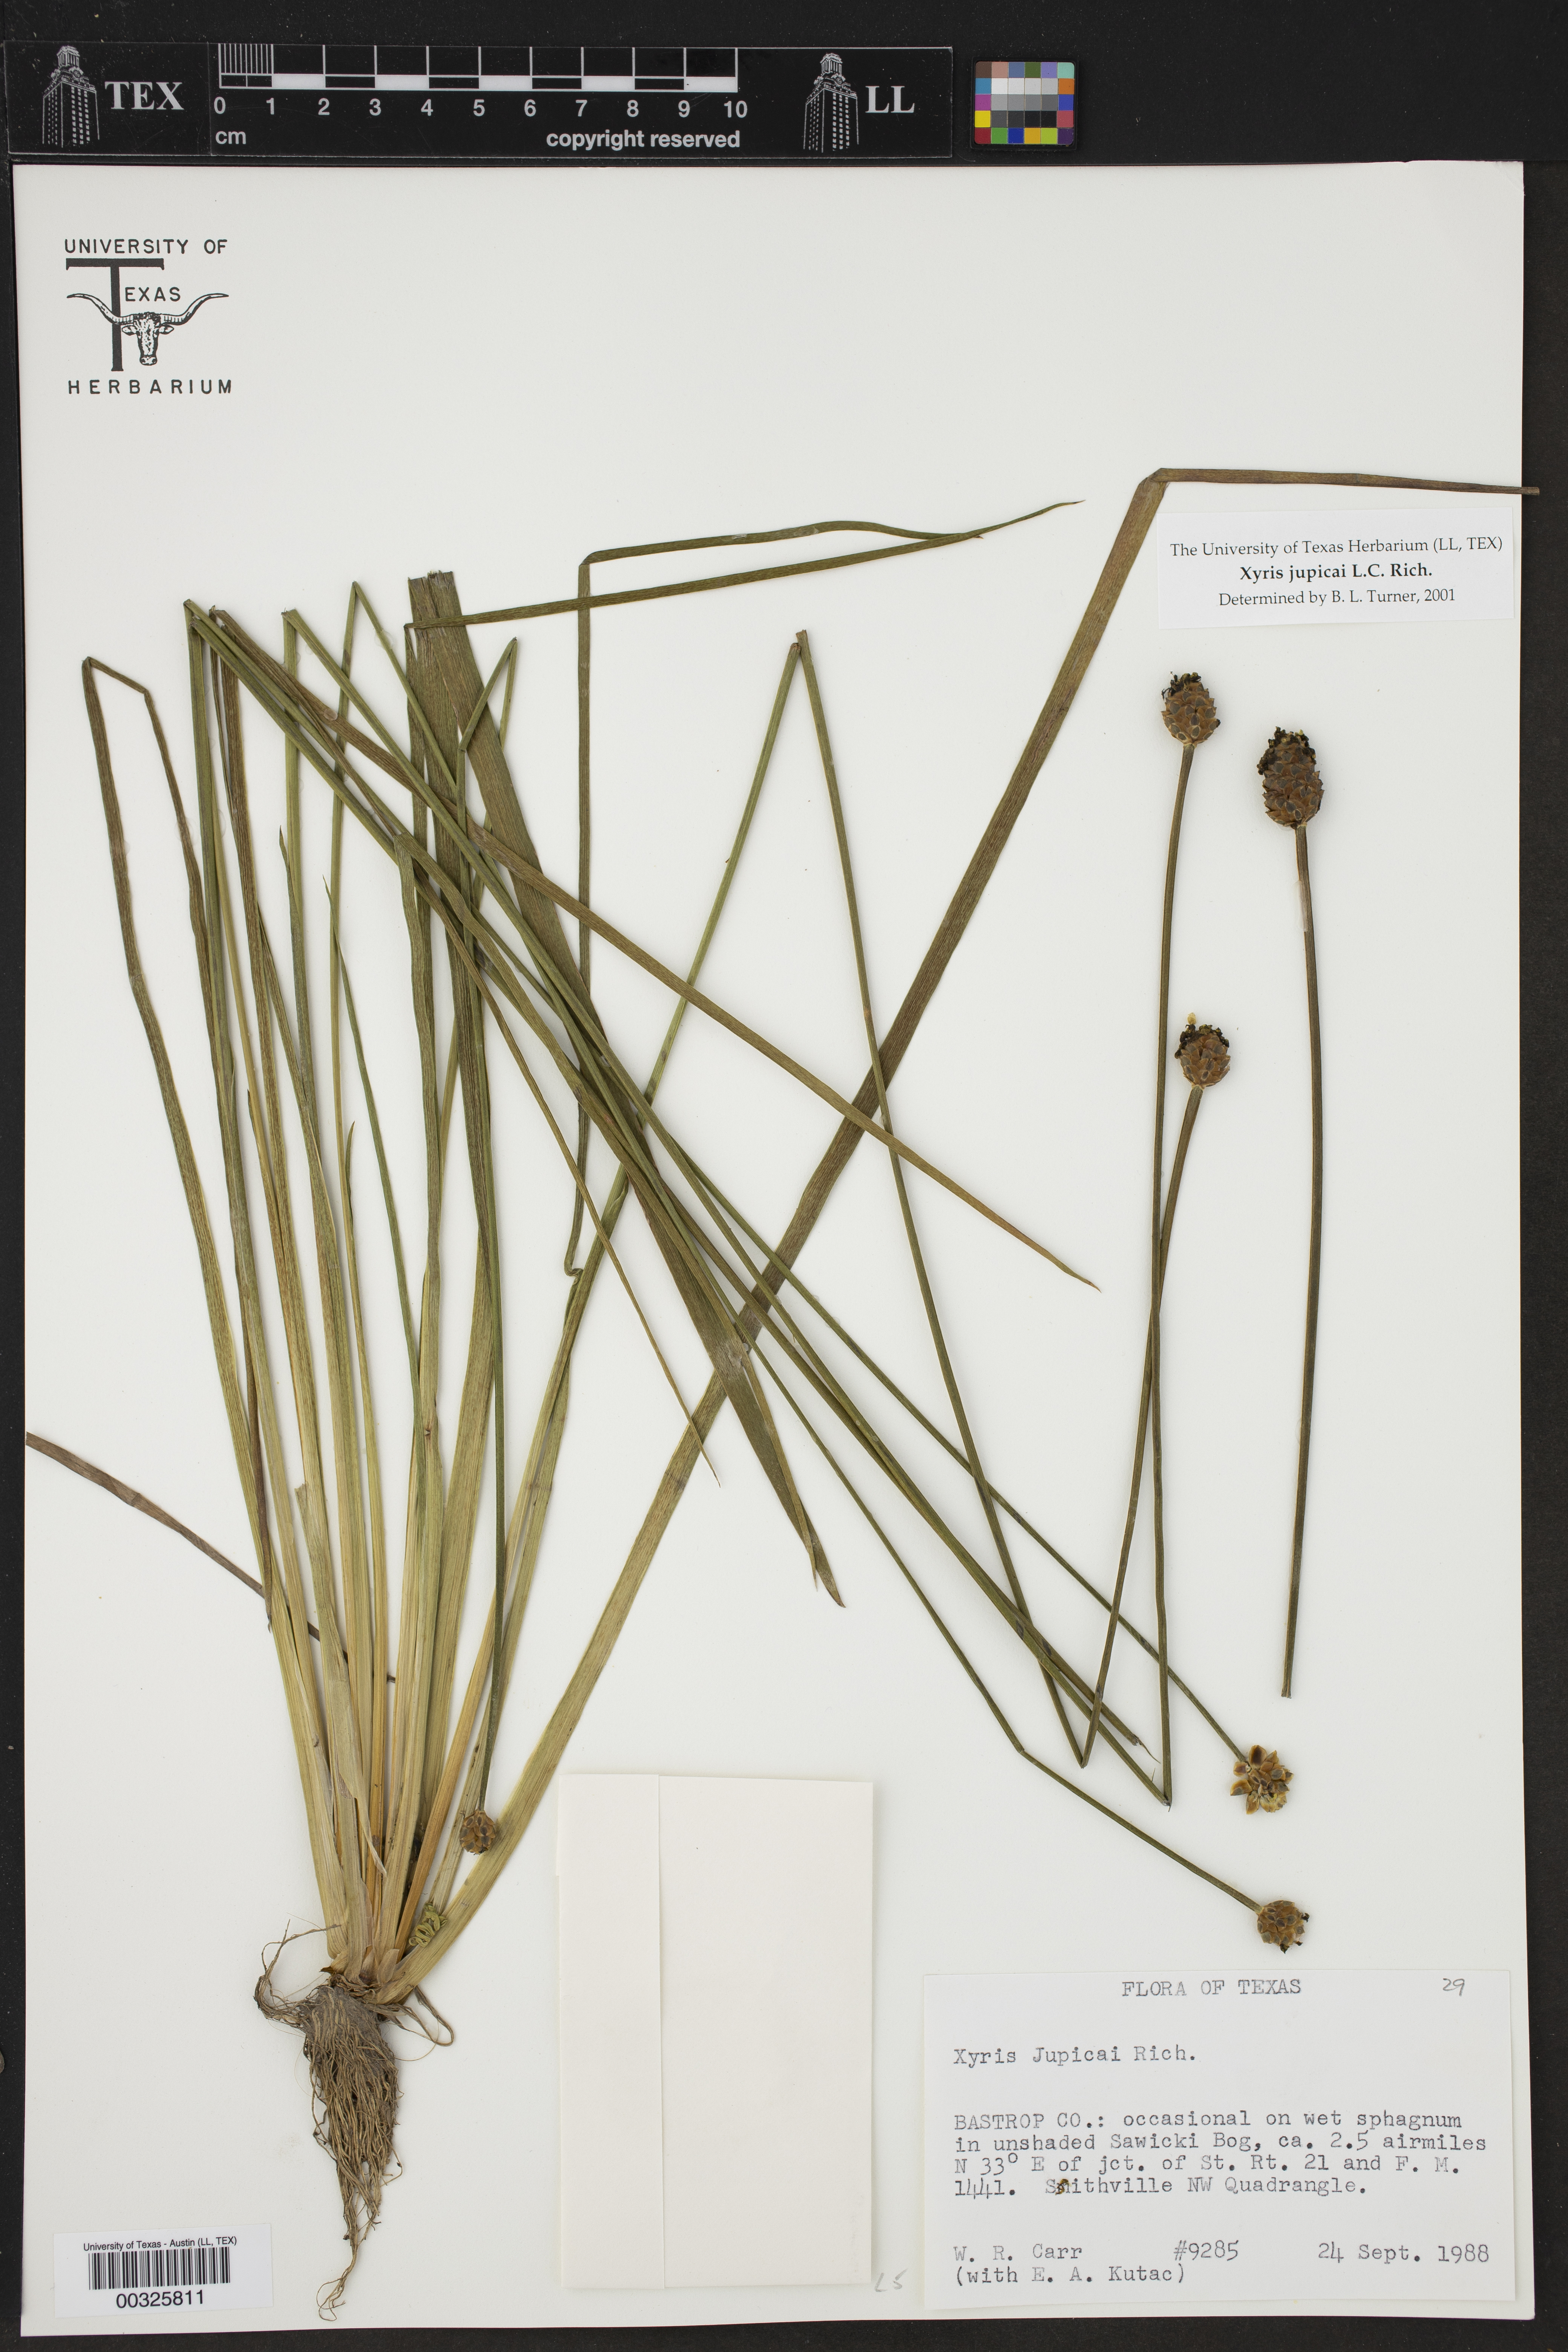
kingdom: Plantae
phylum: Tracheophyta
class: Liliopsida
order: Poales
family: Xyridaceae
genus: Xyris
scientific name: Xyris jupicai
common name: Richard's yelloweyed grass
